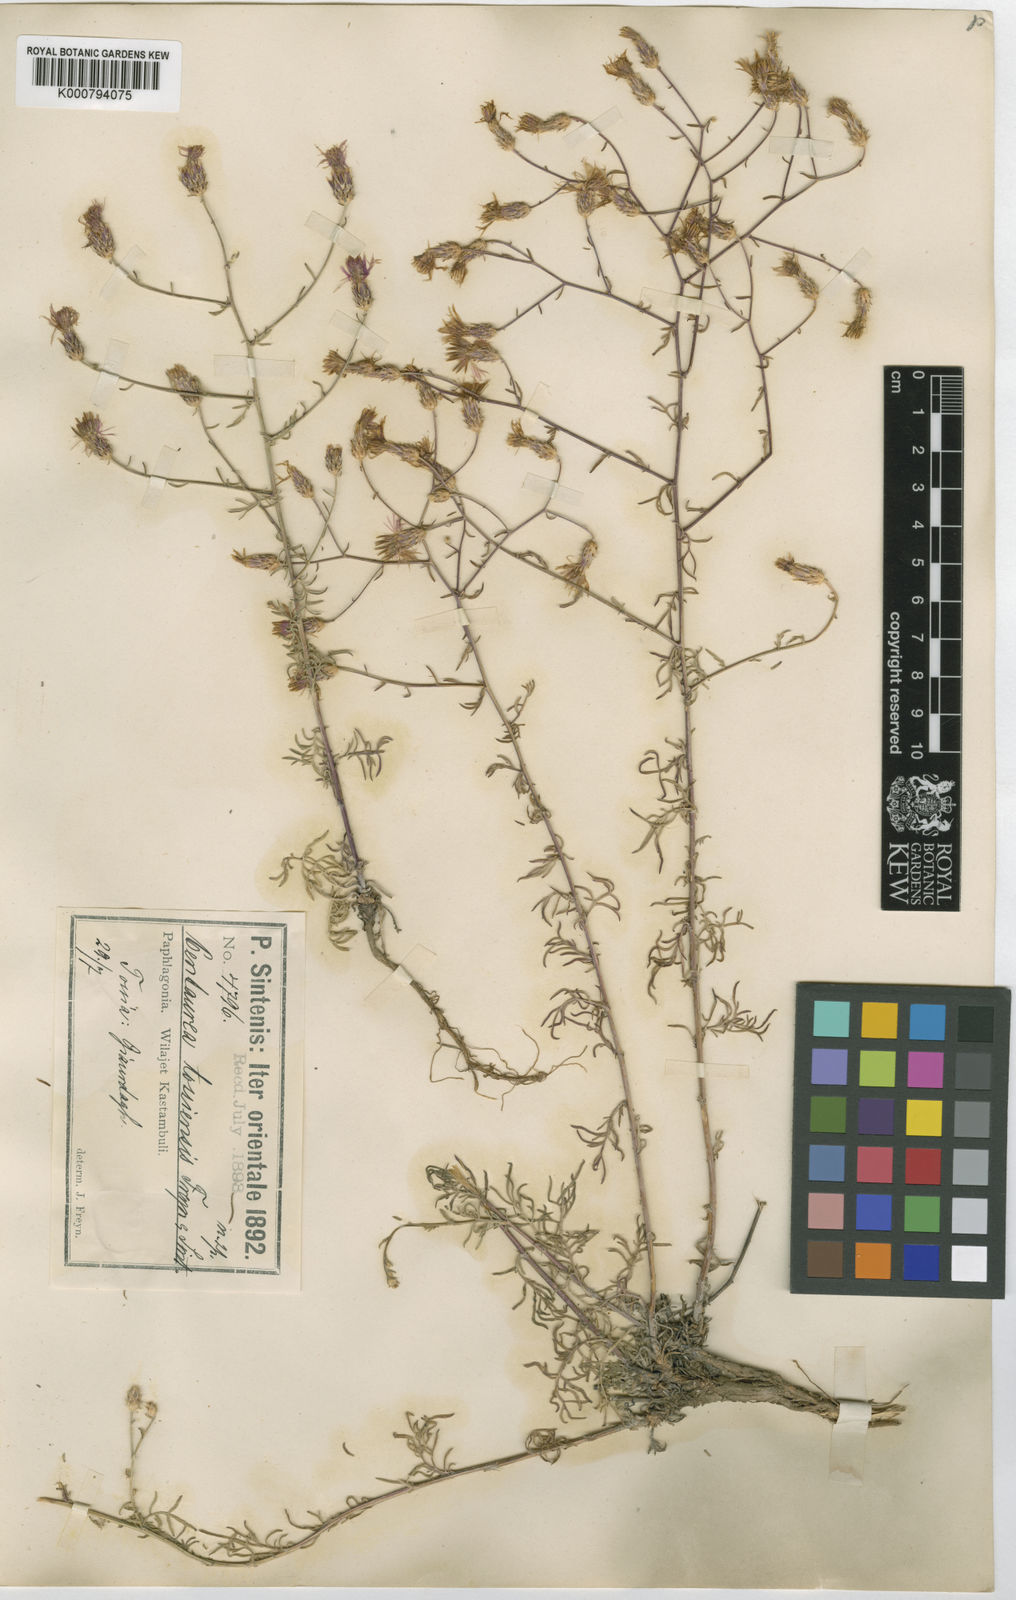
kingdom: Plantae
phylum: Tracheophyta
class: Magnoliopsida
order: Asterales
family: Asteraceae
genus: Centaurea
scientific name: Centaurea tossiensis
